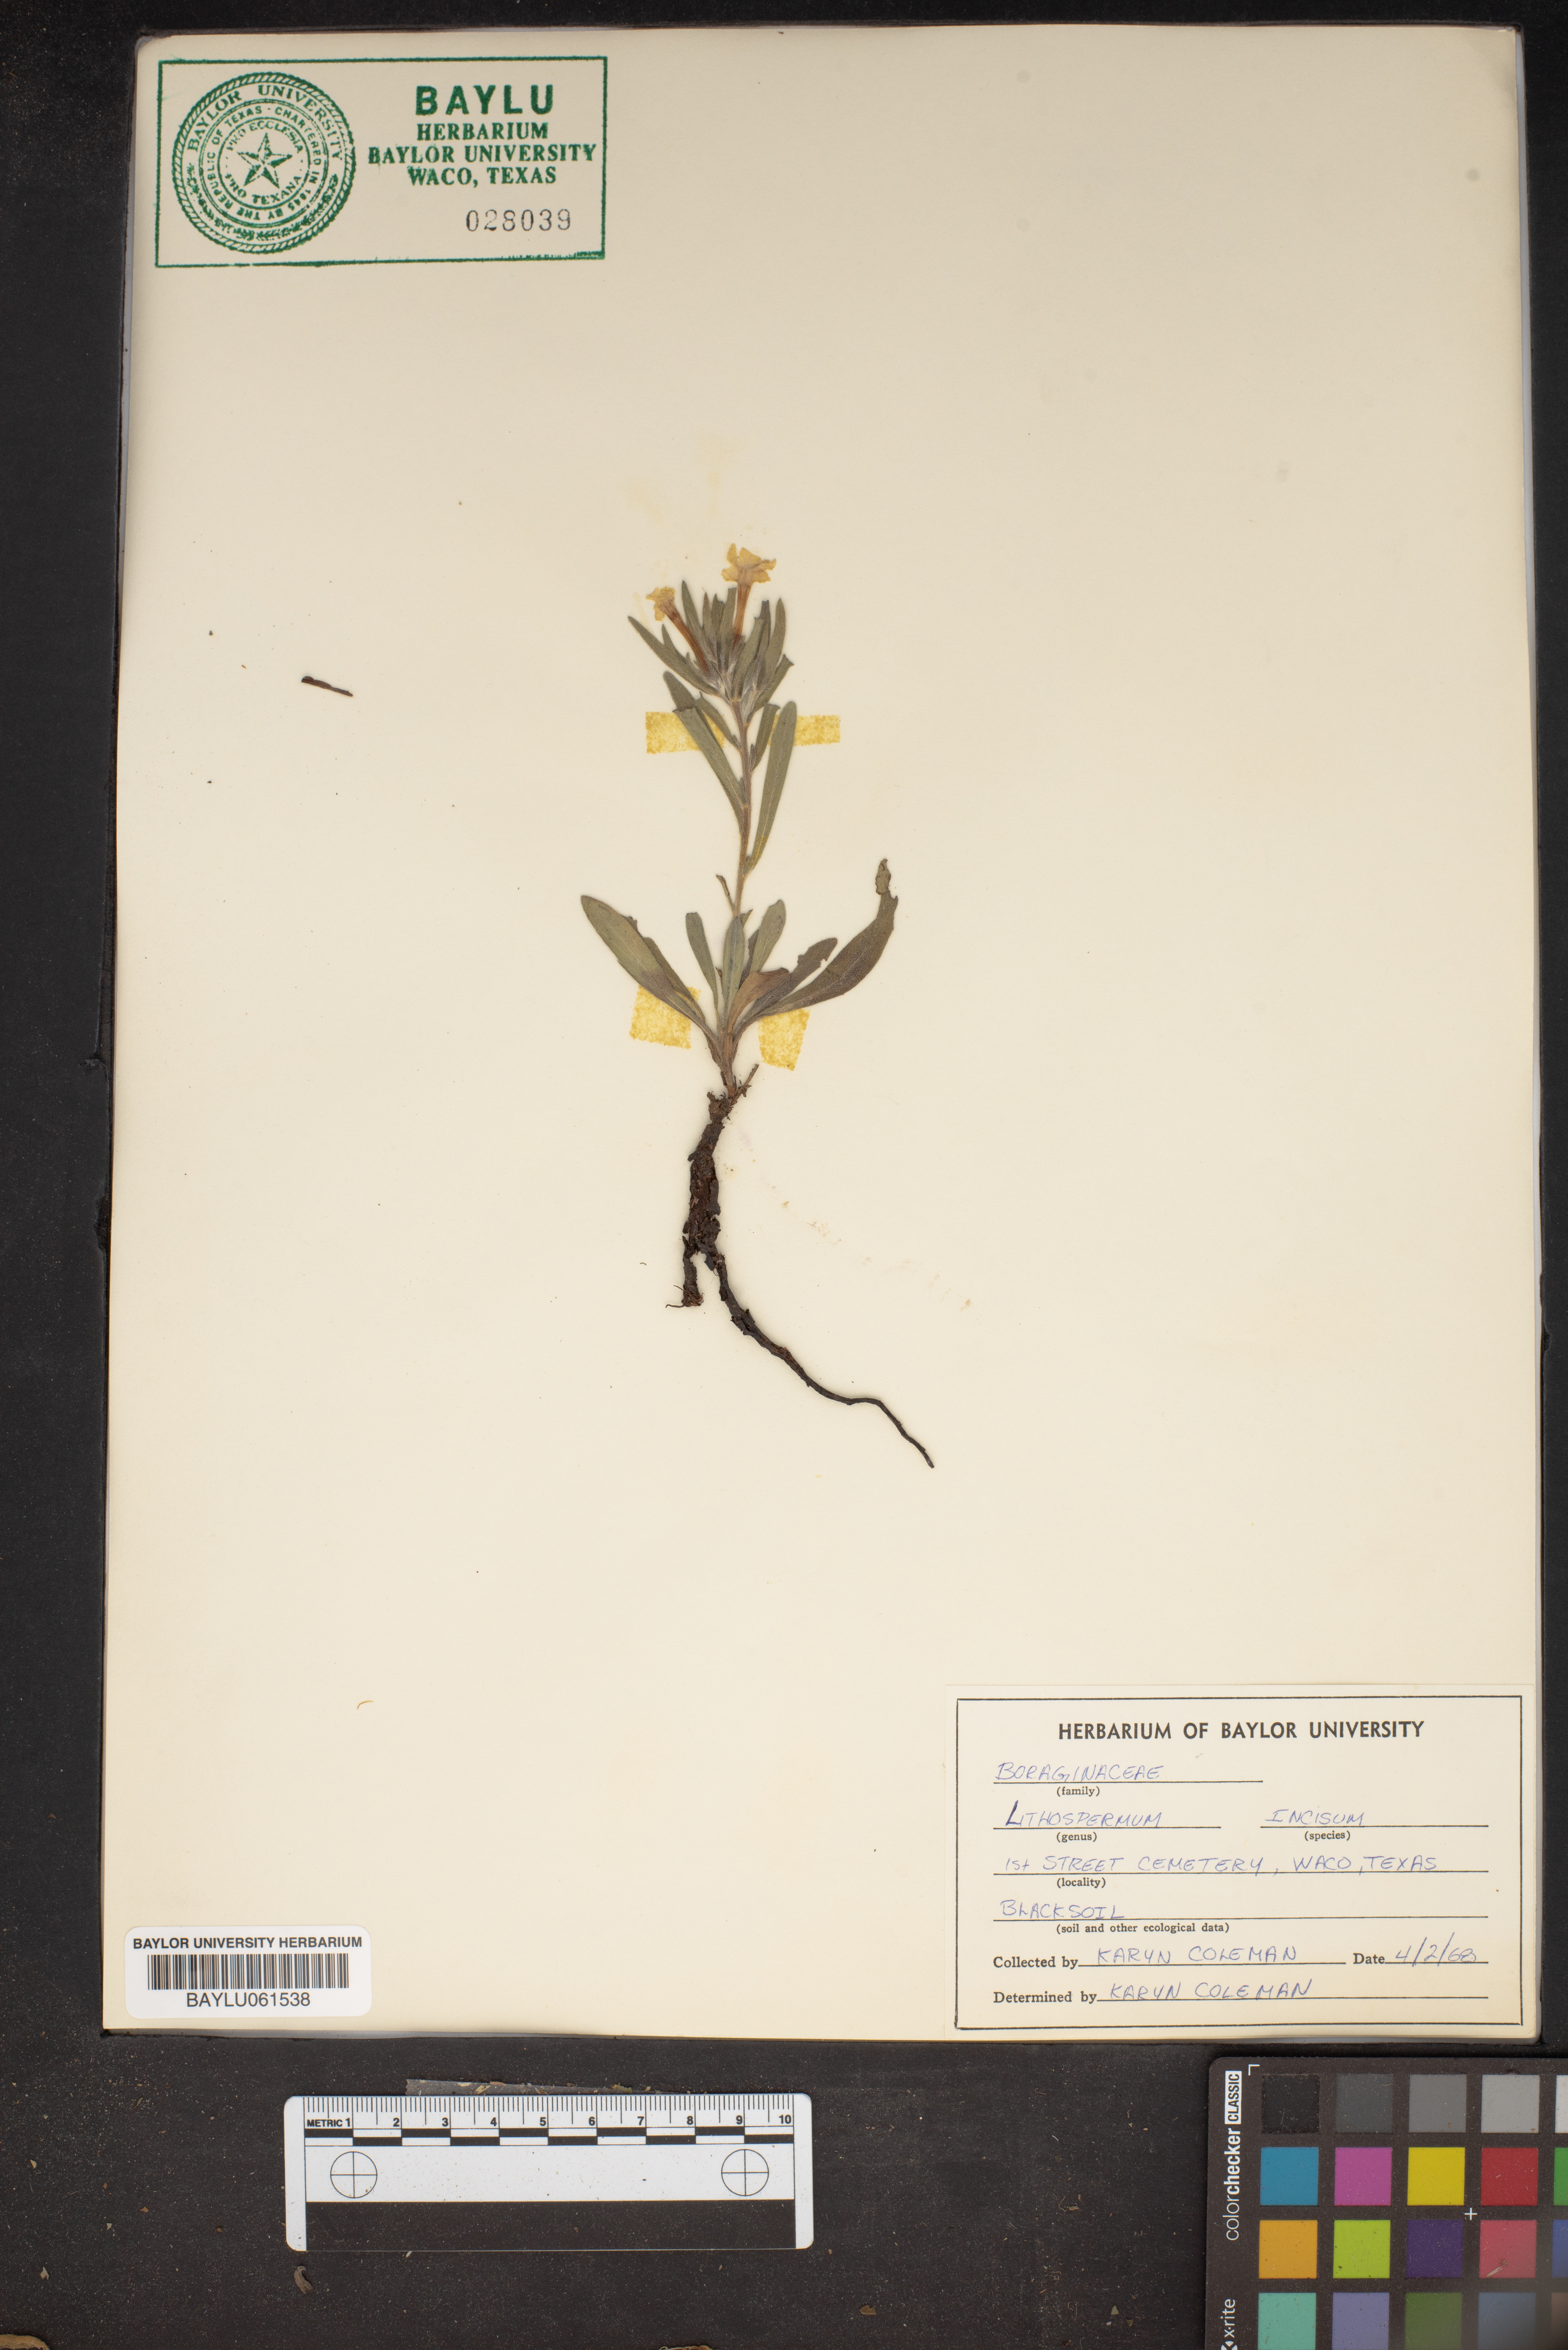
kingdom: Plantae
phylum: Tracheophyta
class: Magnoliopsida
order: Boraginales
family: Boraginaceae
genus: Lithospermum
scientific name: Lithospermum incisum
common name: Fringed gromwell
